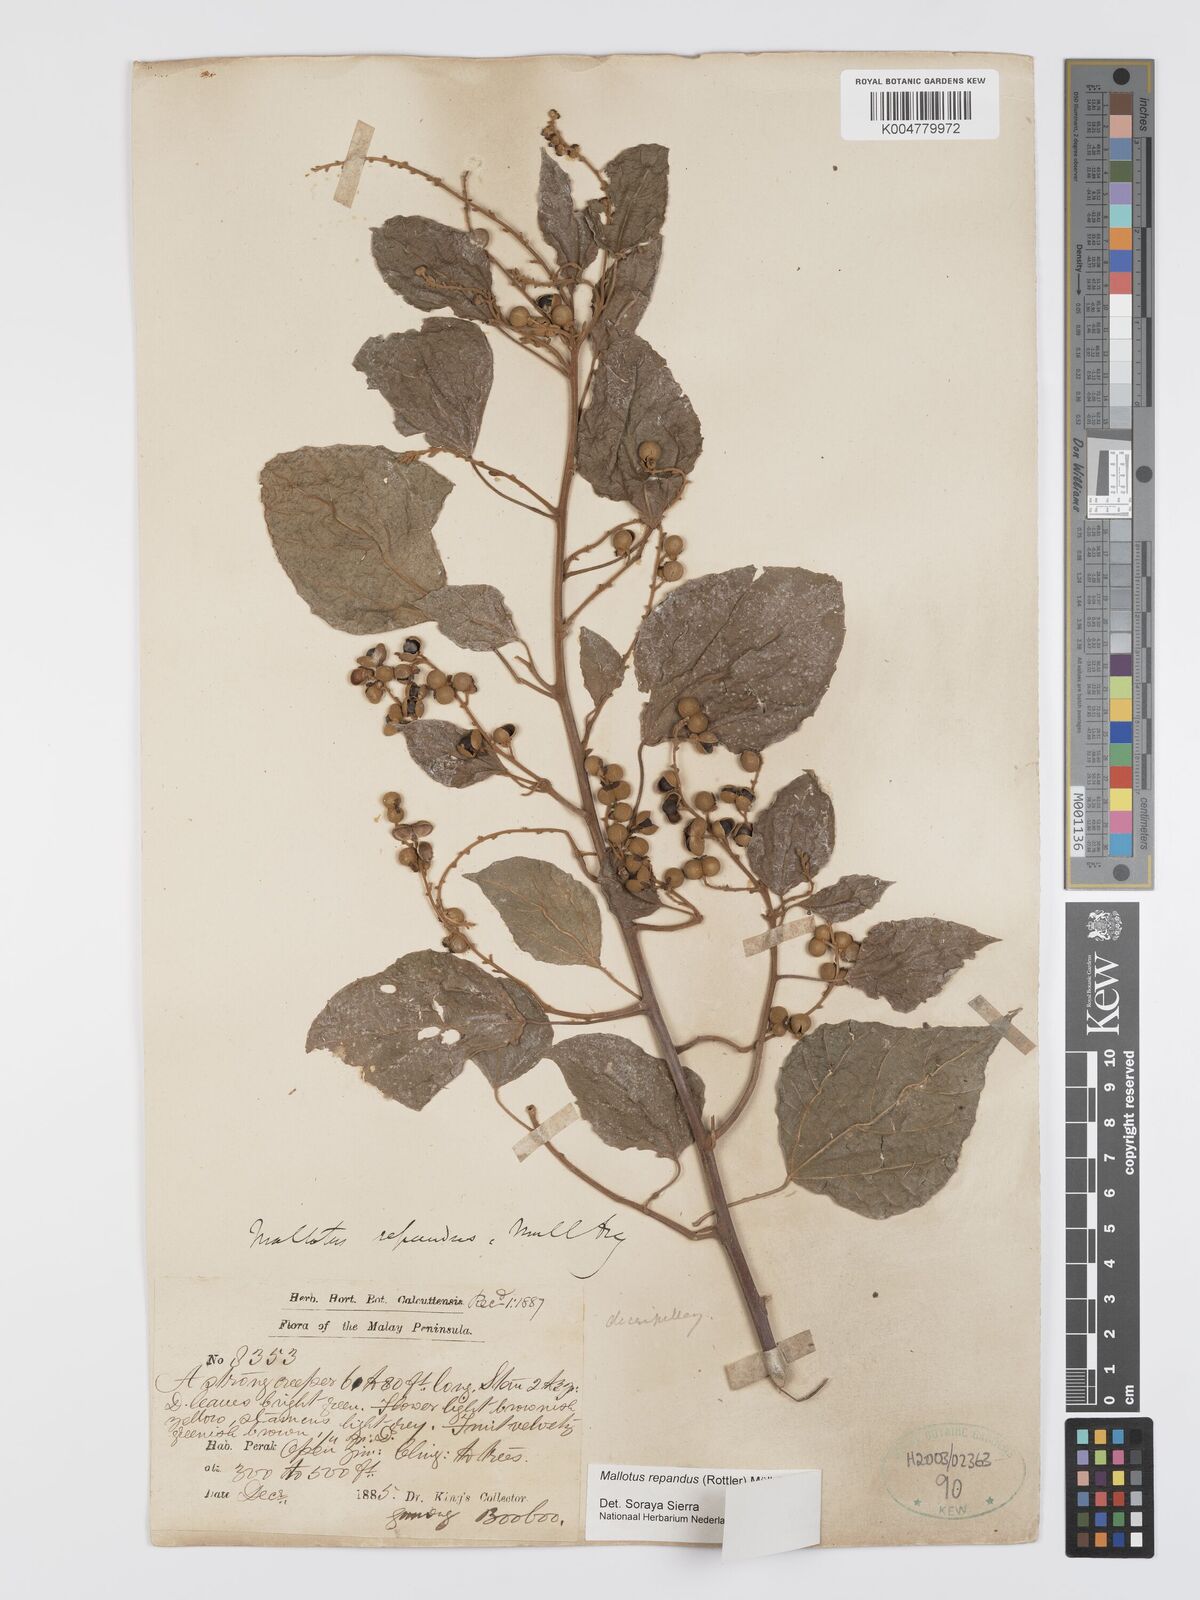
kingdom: Plantae
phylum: Tracheophyta
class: Magnoliopsida
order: Malpighiales
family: Euphorbiaceae
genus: Mallotus
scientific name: Mallotus repandus
